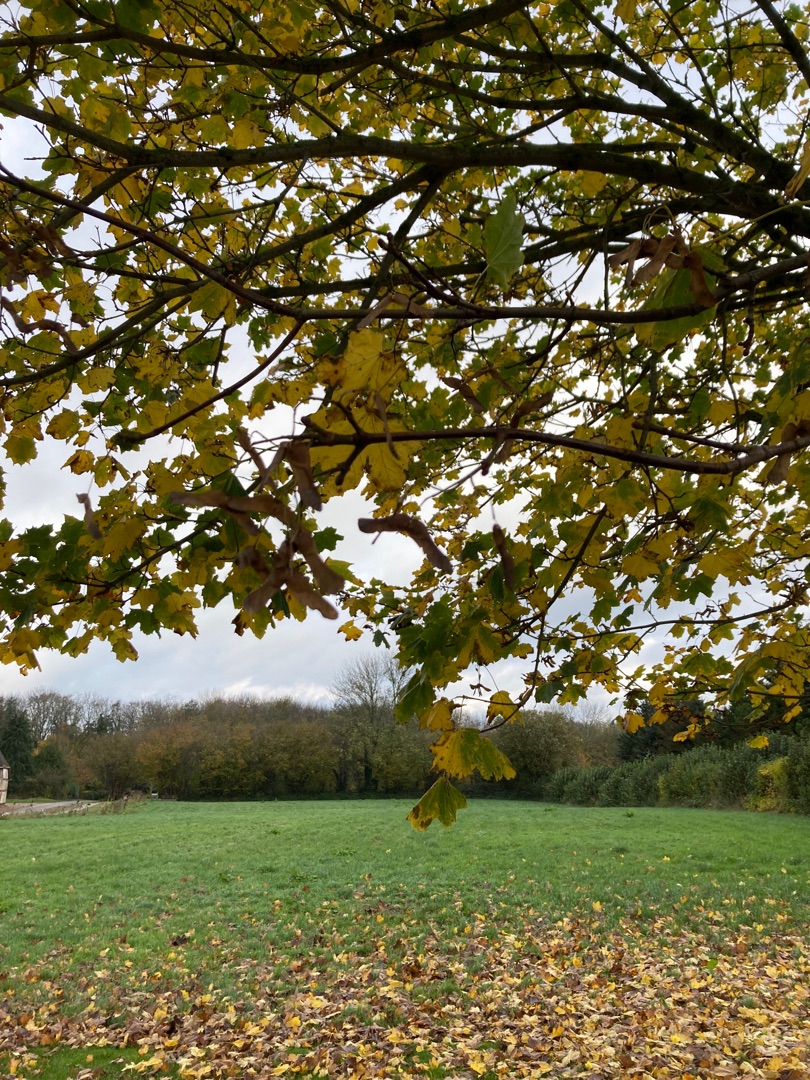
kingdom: Plantae
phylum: Tracheophyta
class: Magnoliopsida
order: Sapindales
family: Sapindaceae
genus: Acer
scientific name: Acer platanoides
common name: Spids-løn
